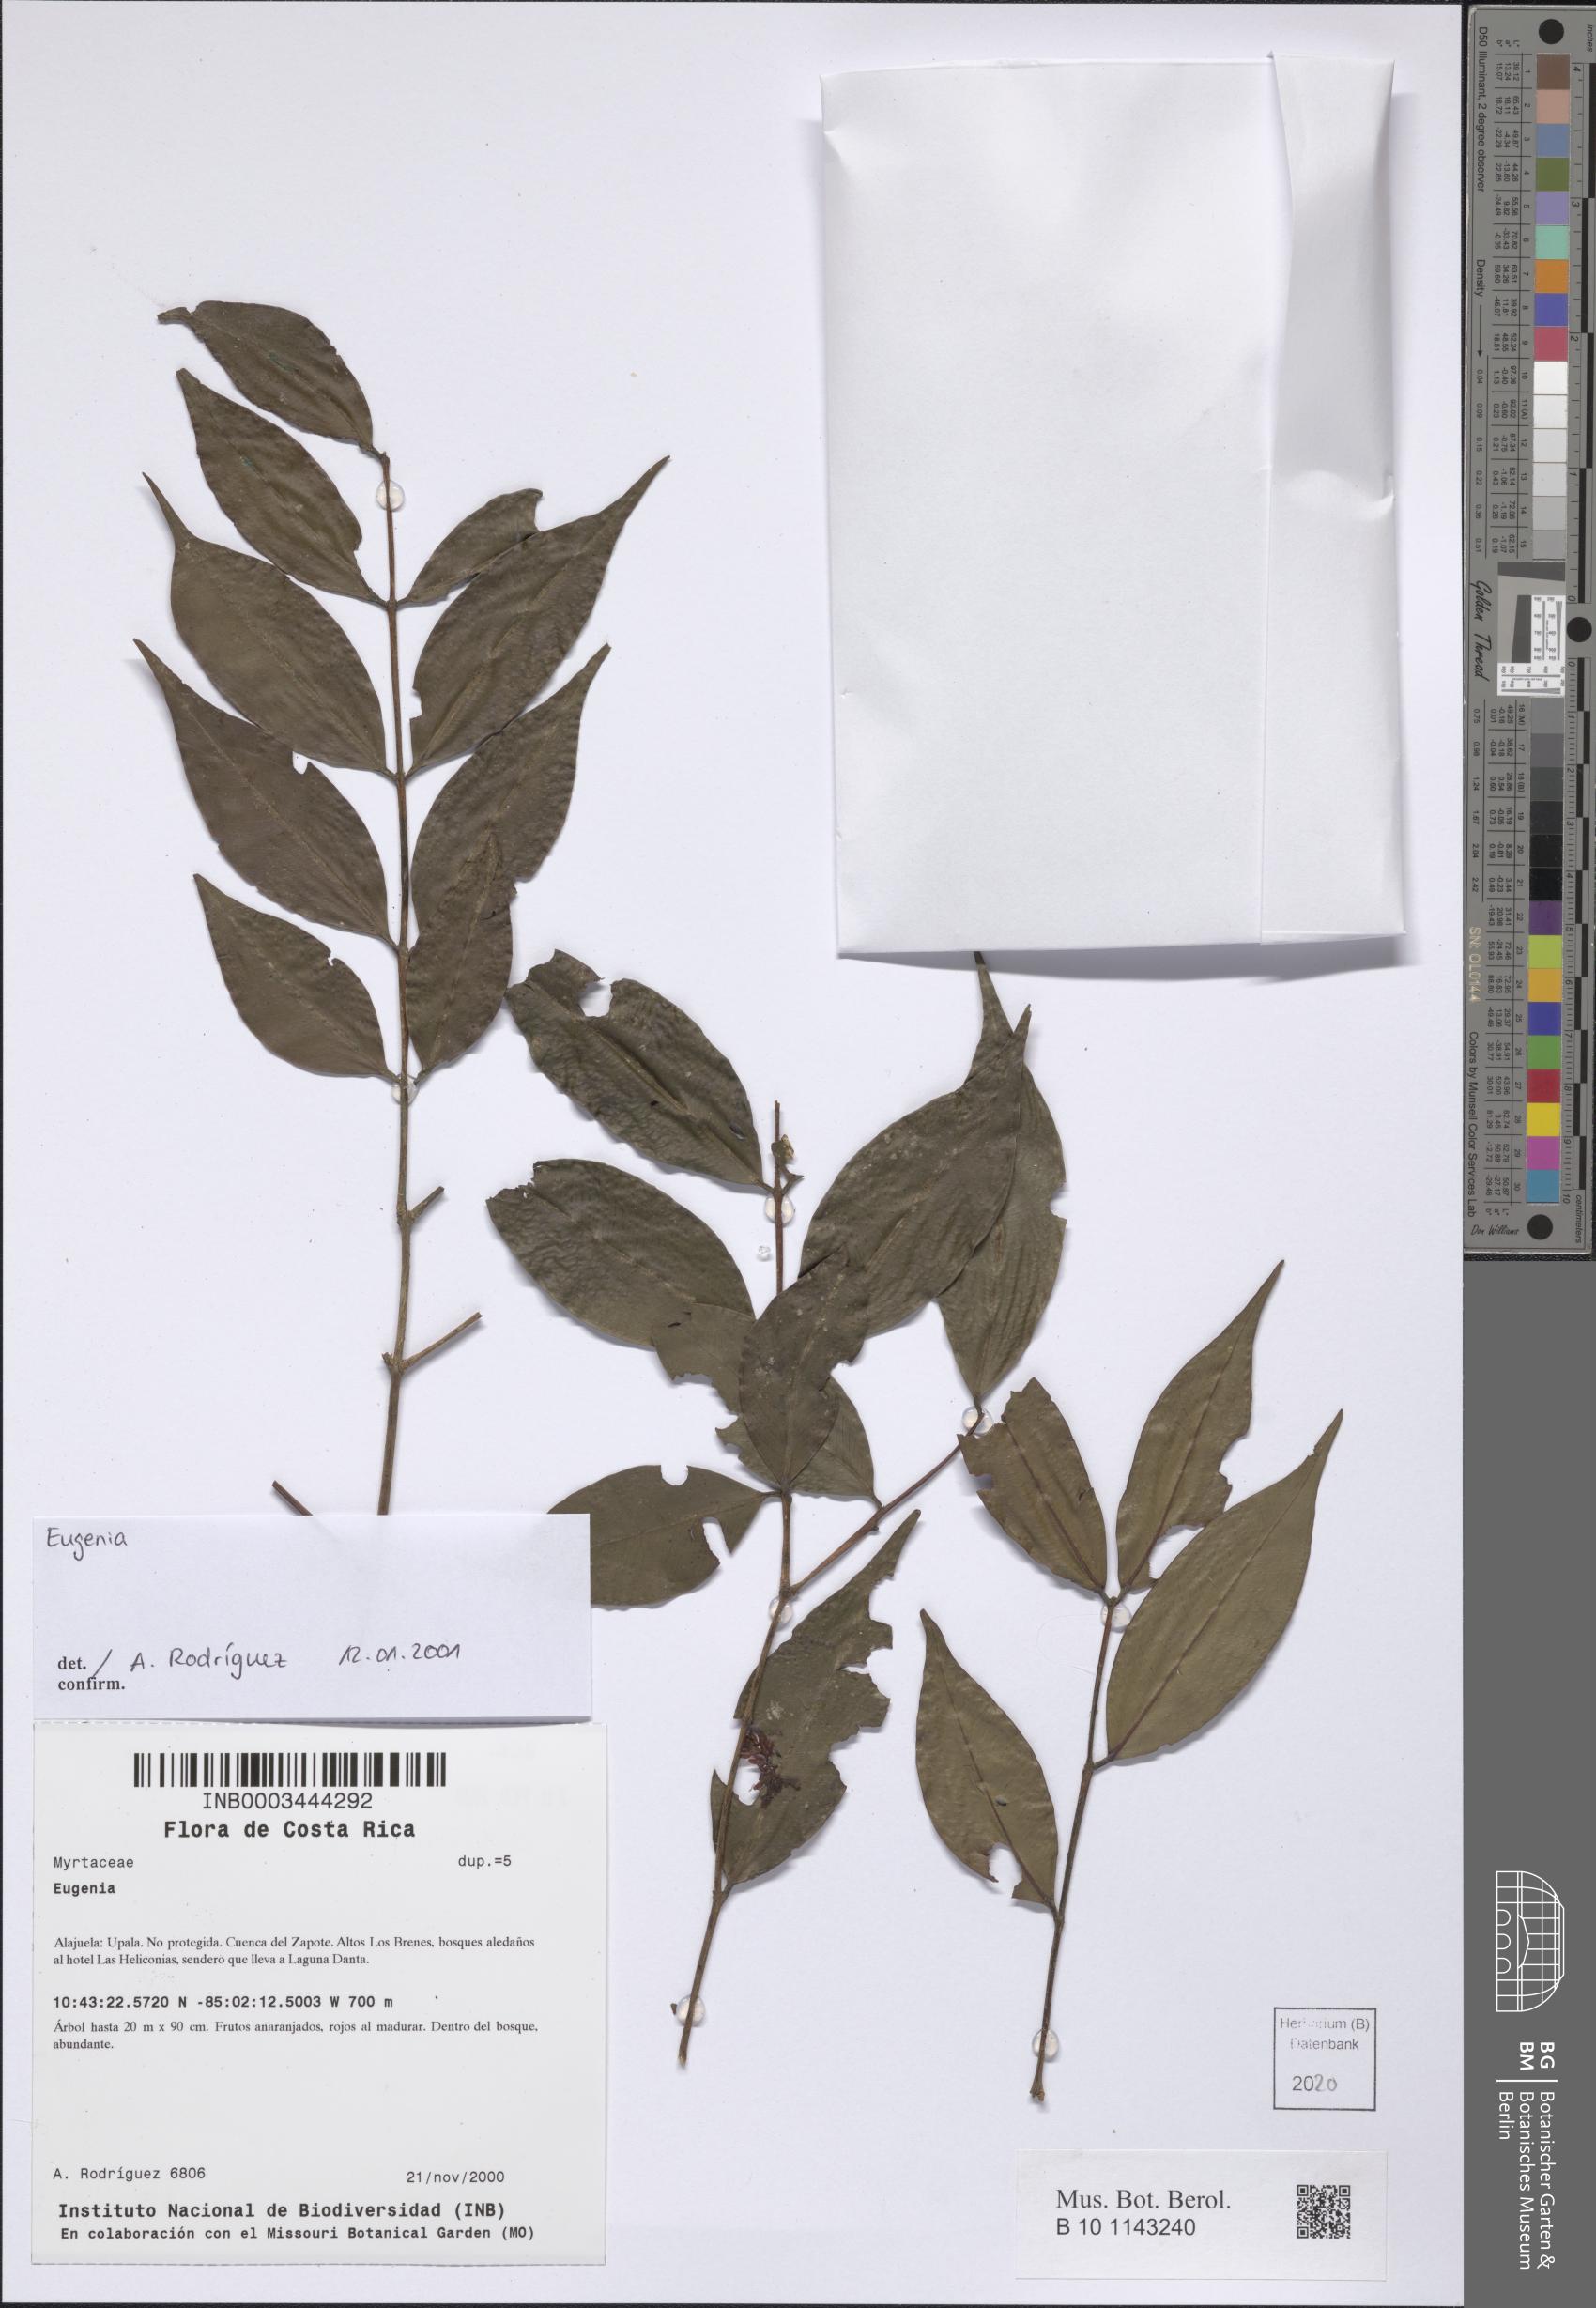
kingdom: Plantae
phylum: Tracheophyta
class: Magnoliopsida
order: Myrtales
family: Myrtaceae
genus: Eugenia
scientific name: Eugenia
